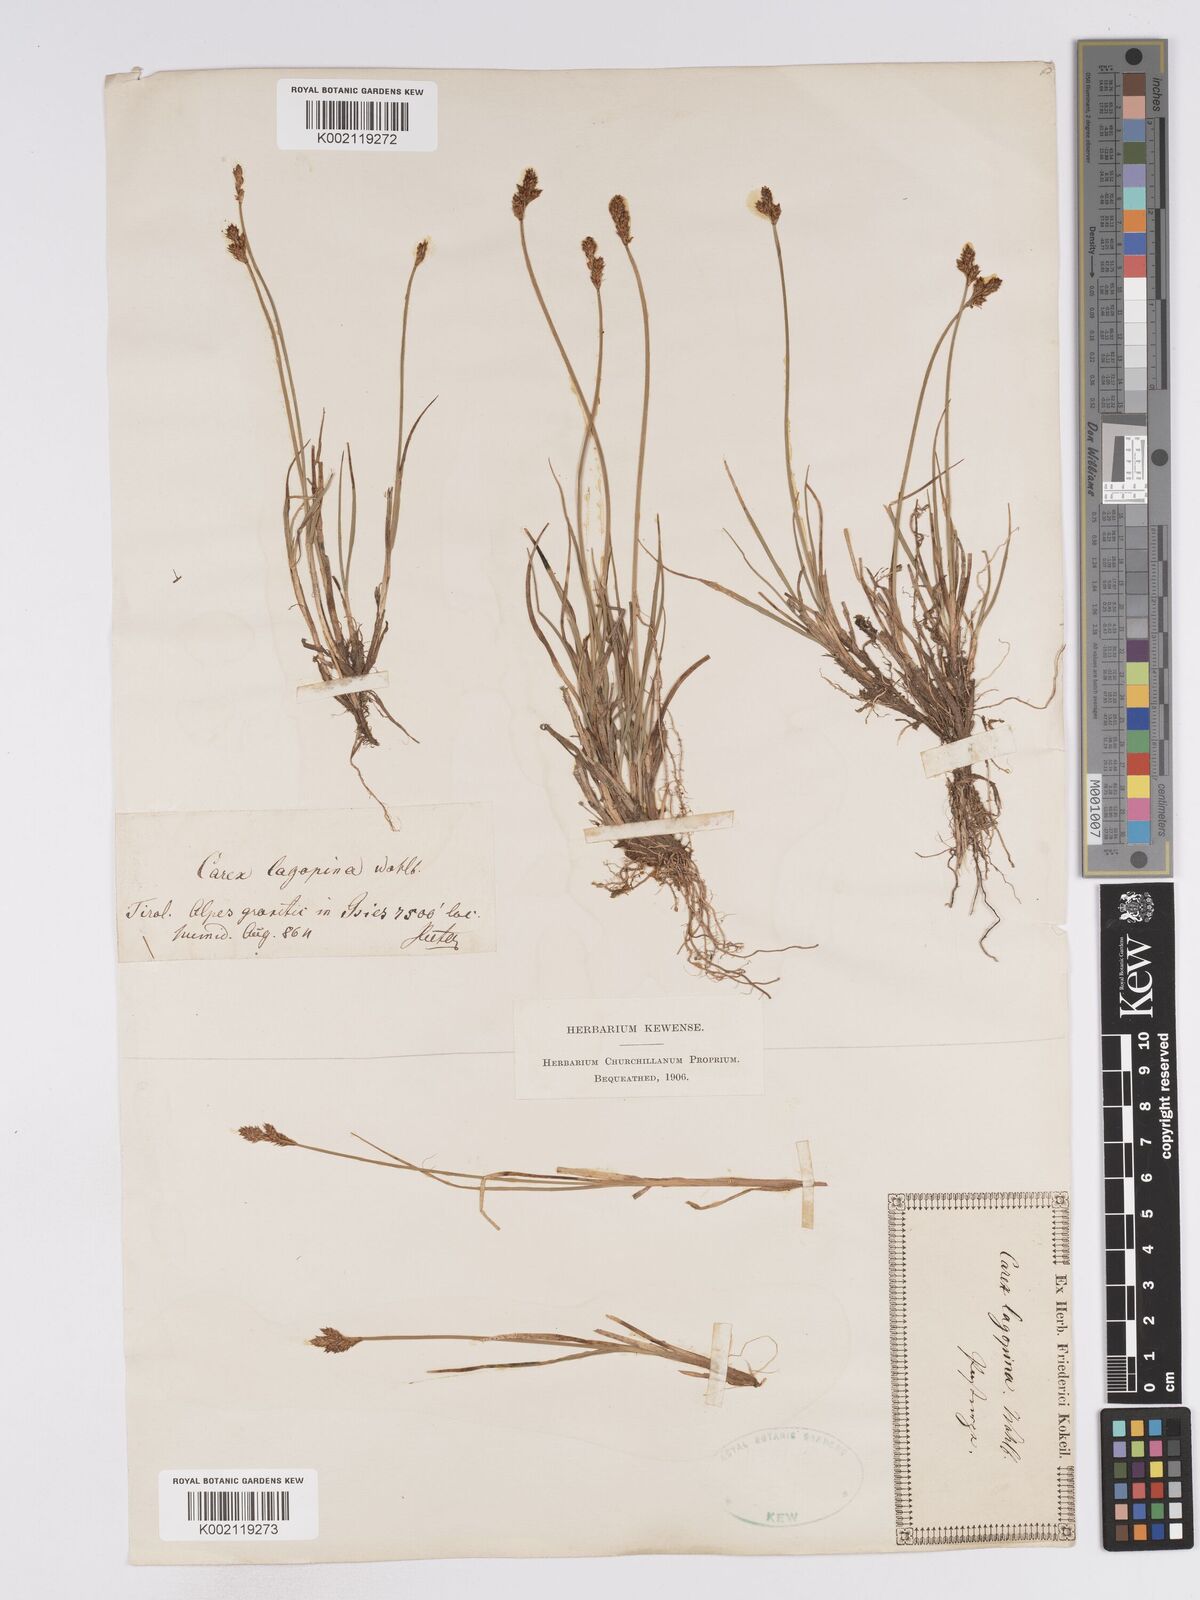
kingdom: Plantae
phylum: Tracheophyta
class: Liliopsida
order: Poales
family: Cyperaceae
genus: Carex
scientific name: Carex lachenalii
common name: Hare's-foot sedge
